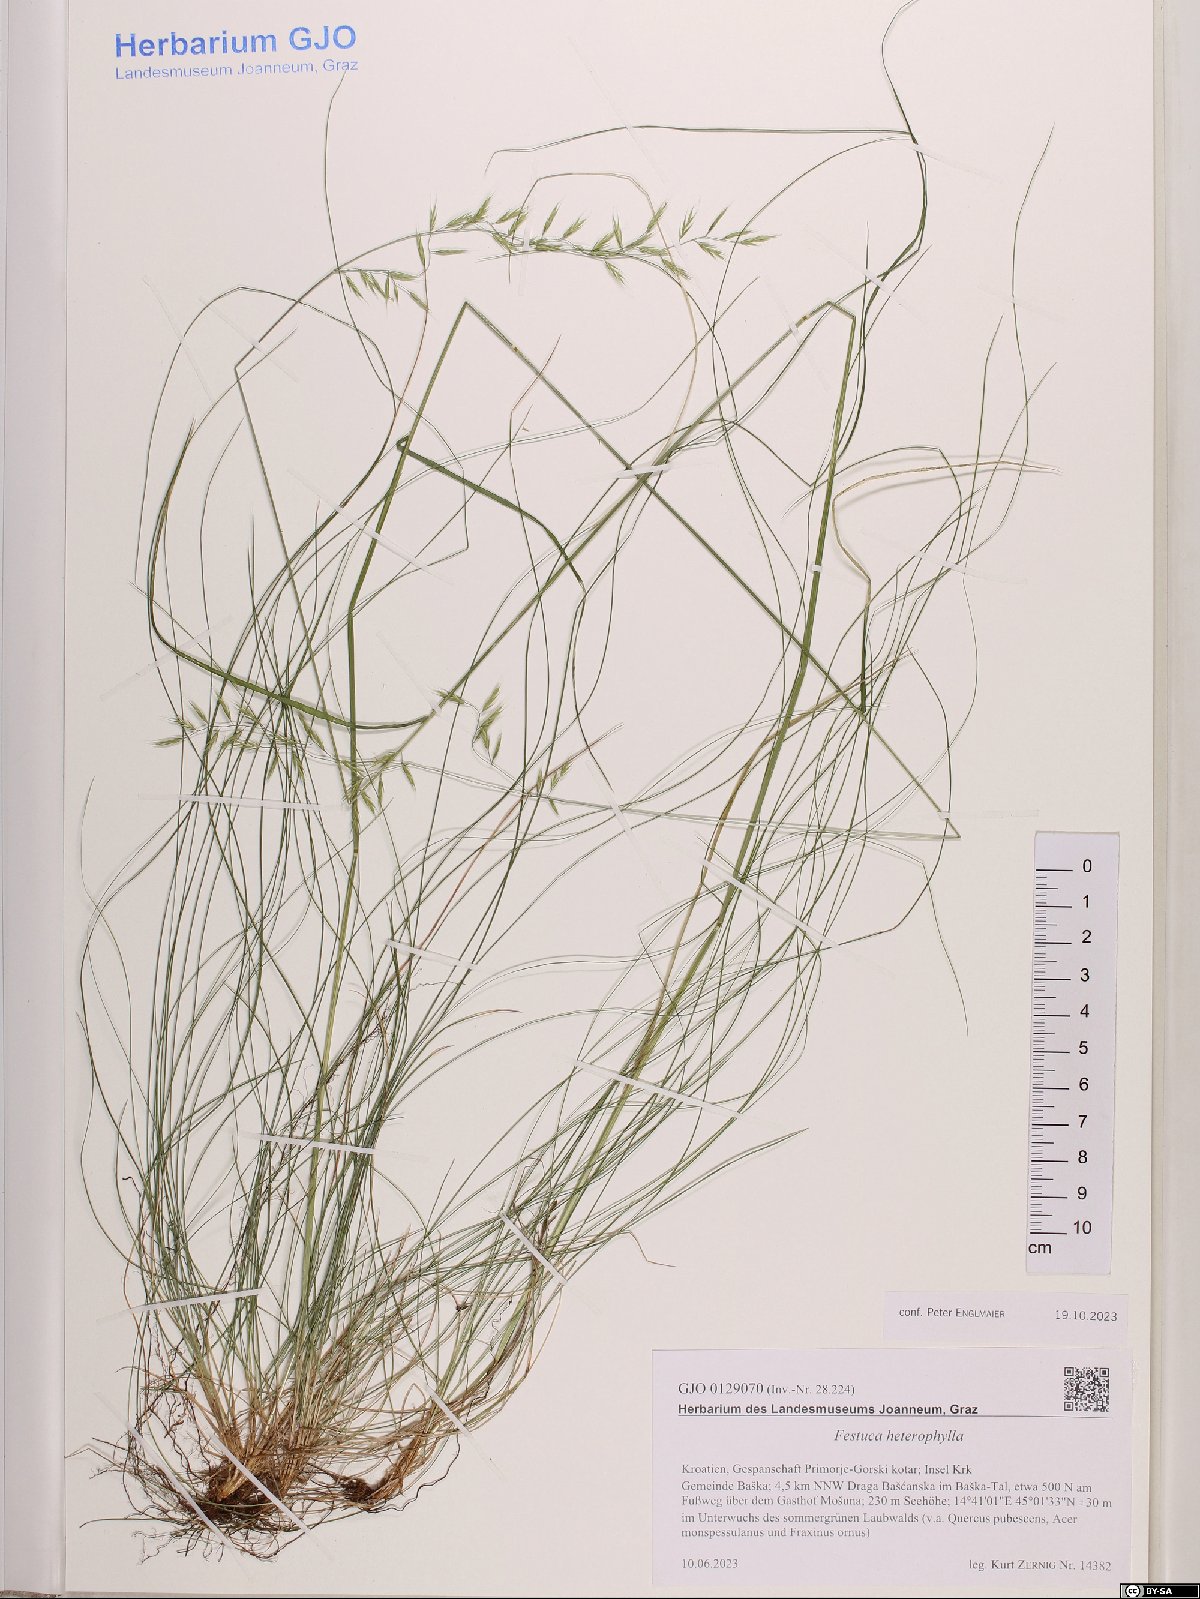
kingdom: Plantae
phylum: Tracheophyta
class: Liliopsida
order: Poales
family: Poaceae
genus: Festuca
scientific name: Festuca heterophylla
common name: Various-leaved fescue
